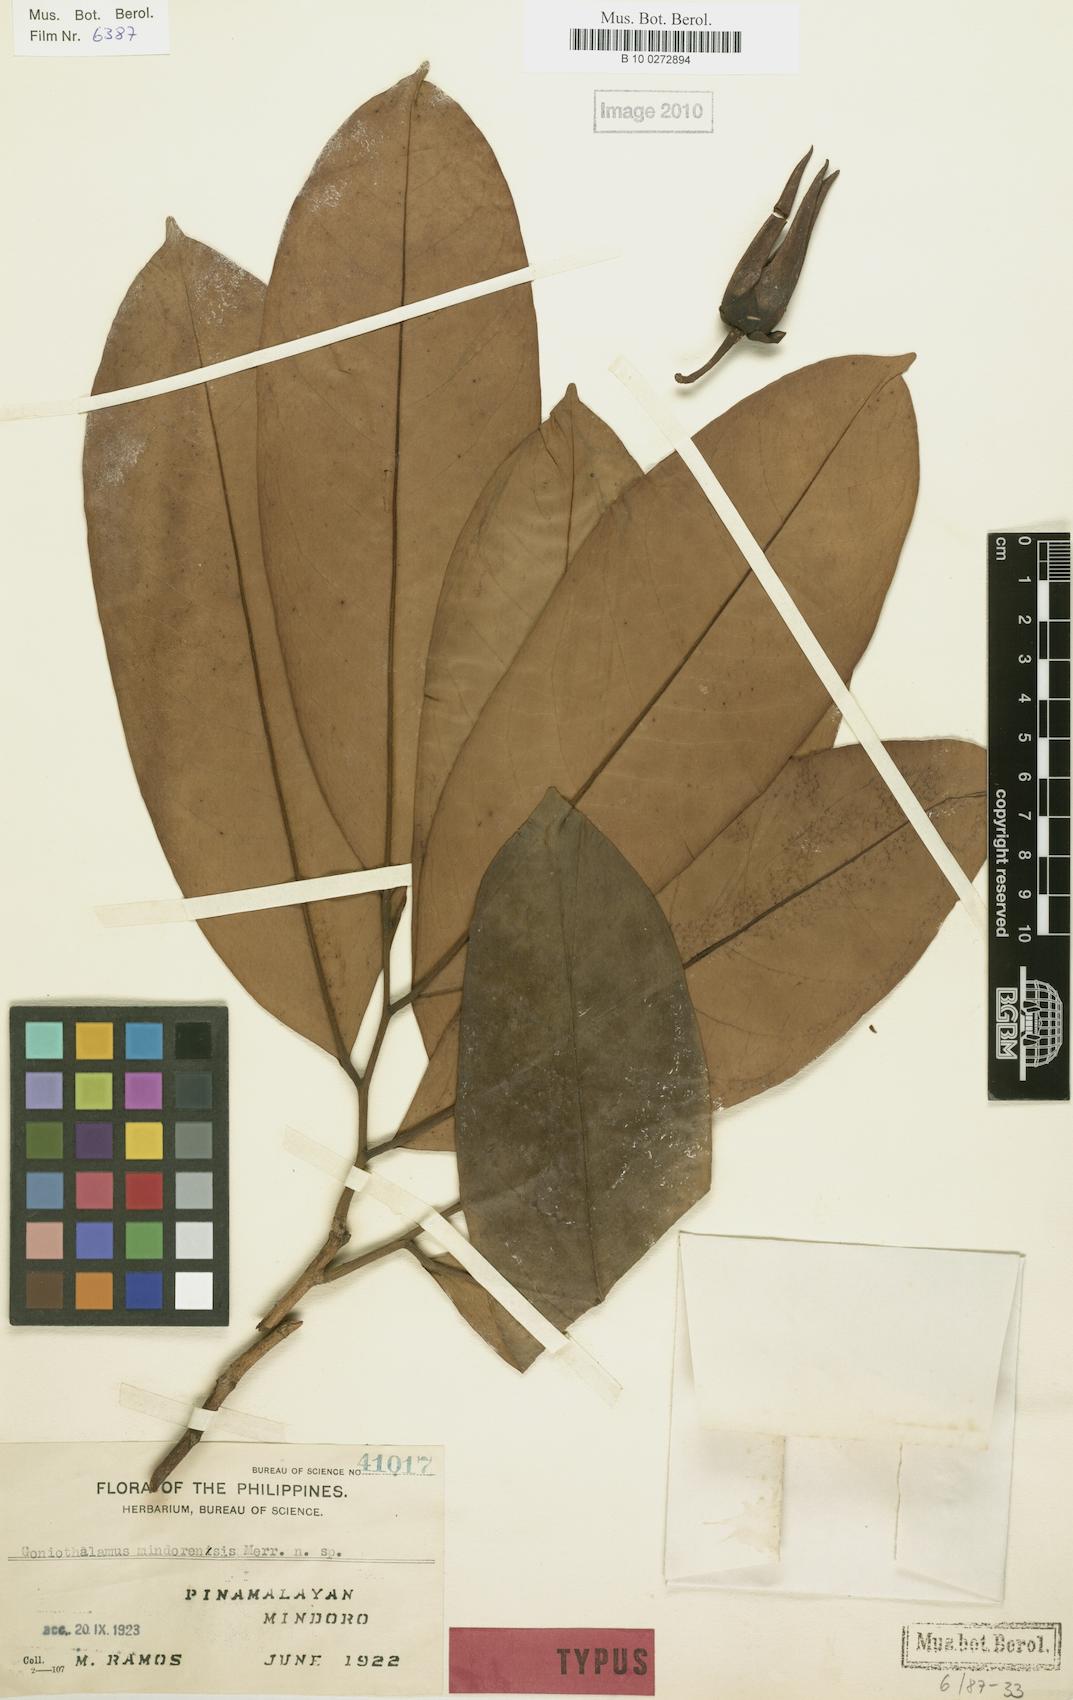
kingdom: Plantae
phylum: Tracheophyta
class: Magnoliopsida
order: Magnoliales
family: Annonaceae
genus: Goniothalamus
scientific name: Goniothalamus mindoroensis
